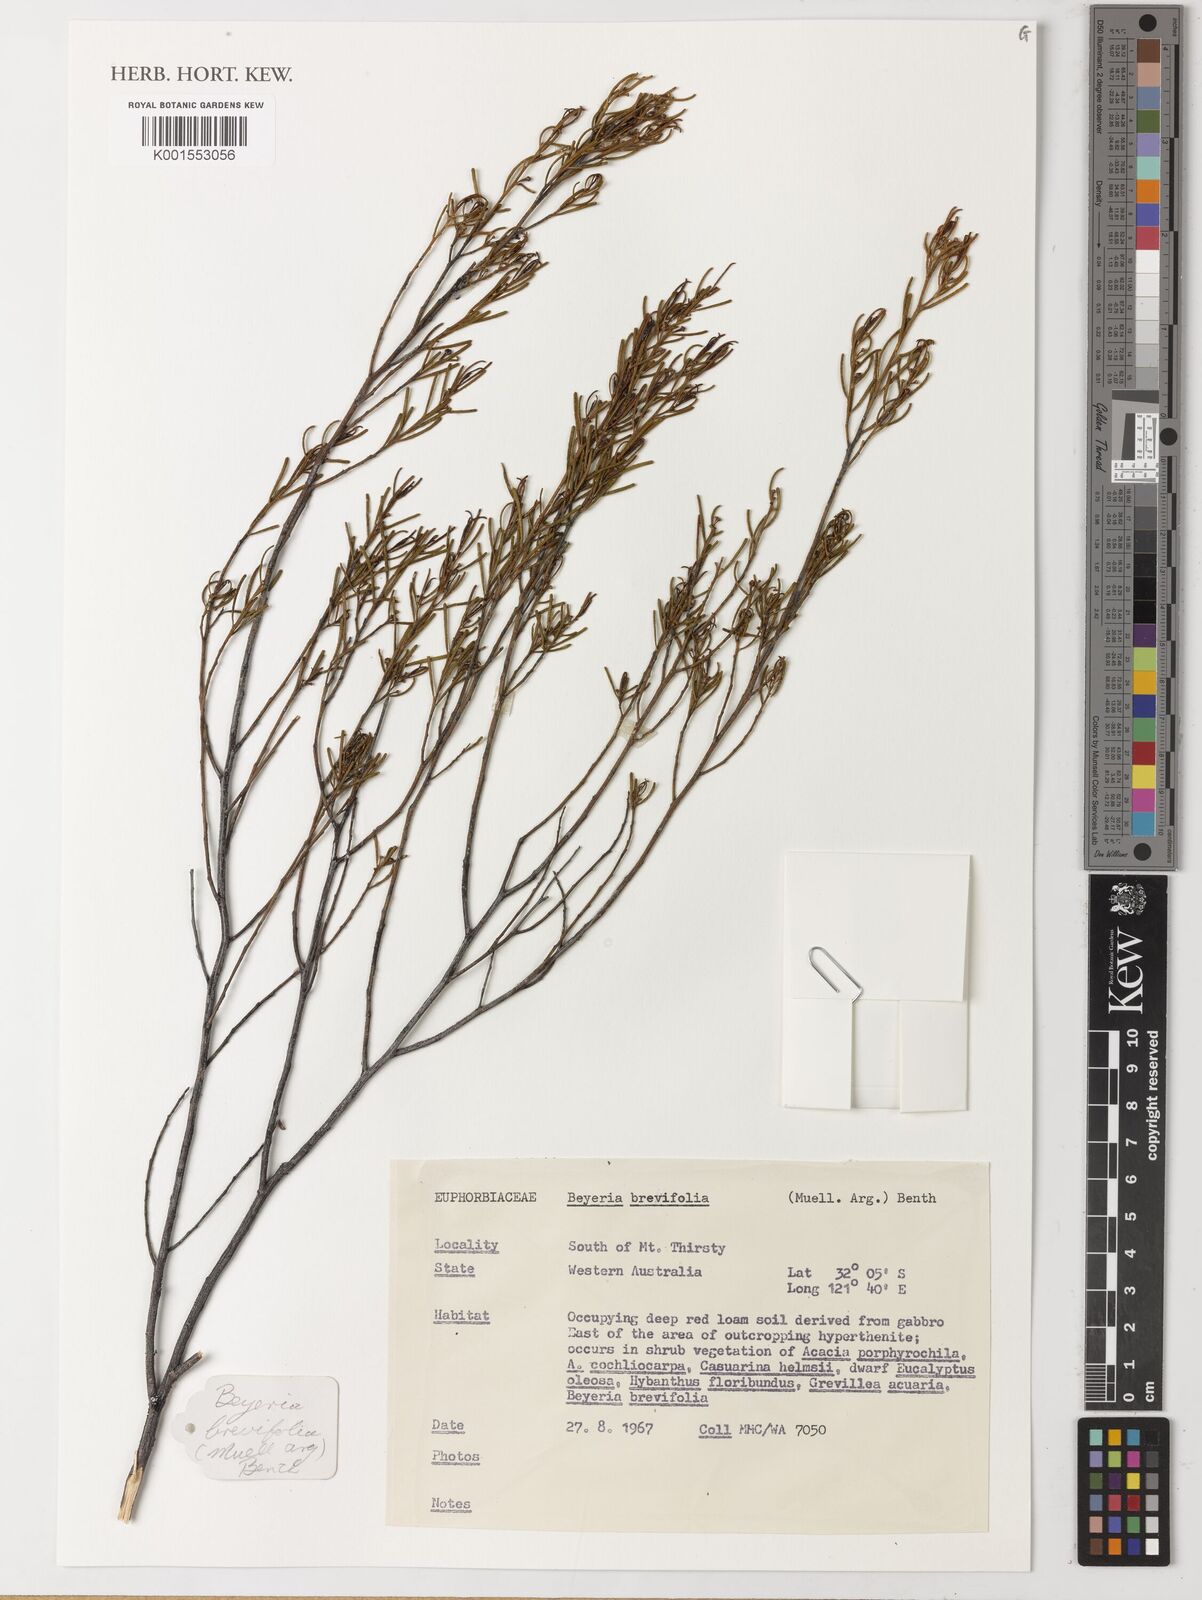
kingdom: Plantae
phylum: Tracheophyta
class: Magnoliopsida
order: Malpighiales
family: Euphorbiaceae
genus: Beyeria
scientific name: Beyeria
